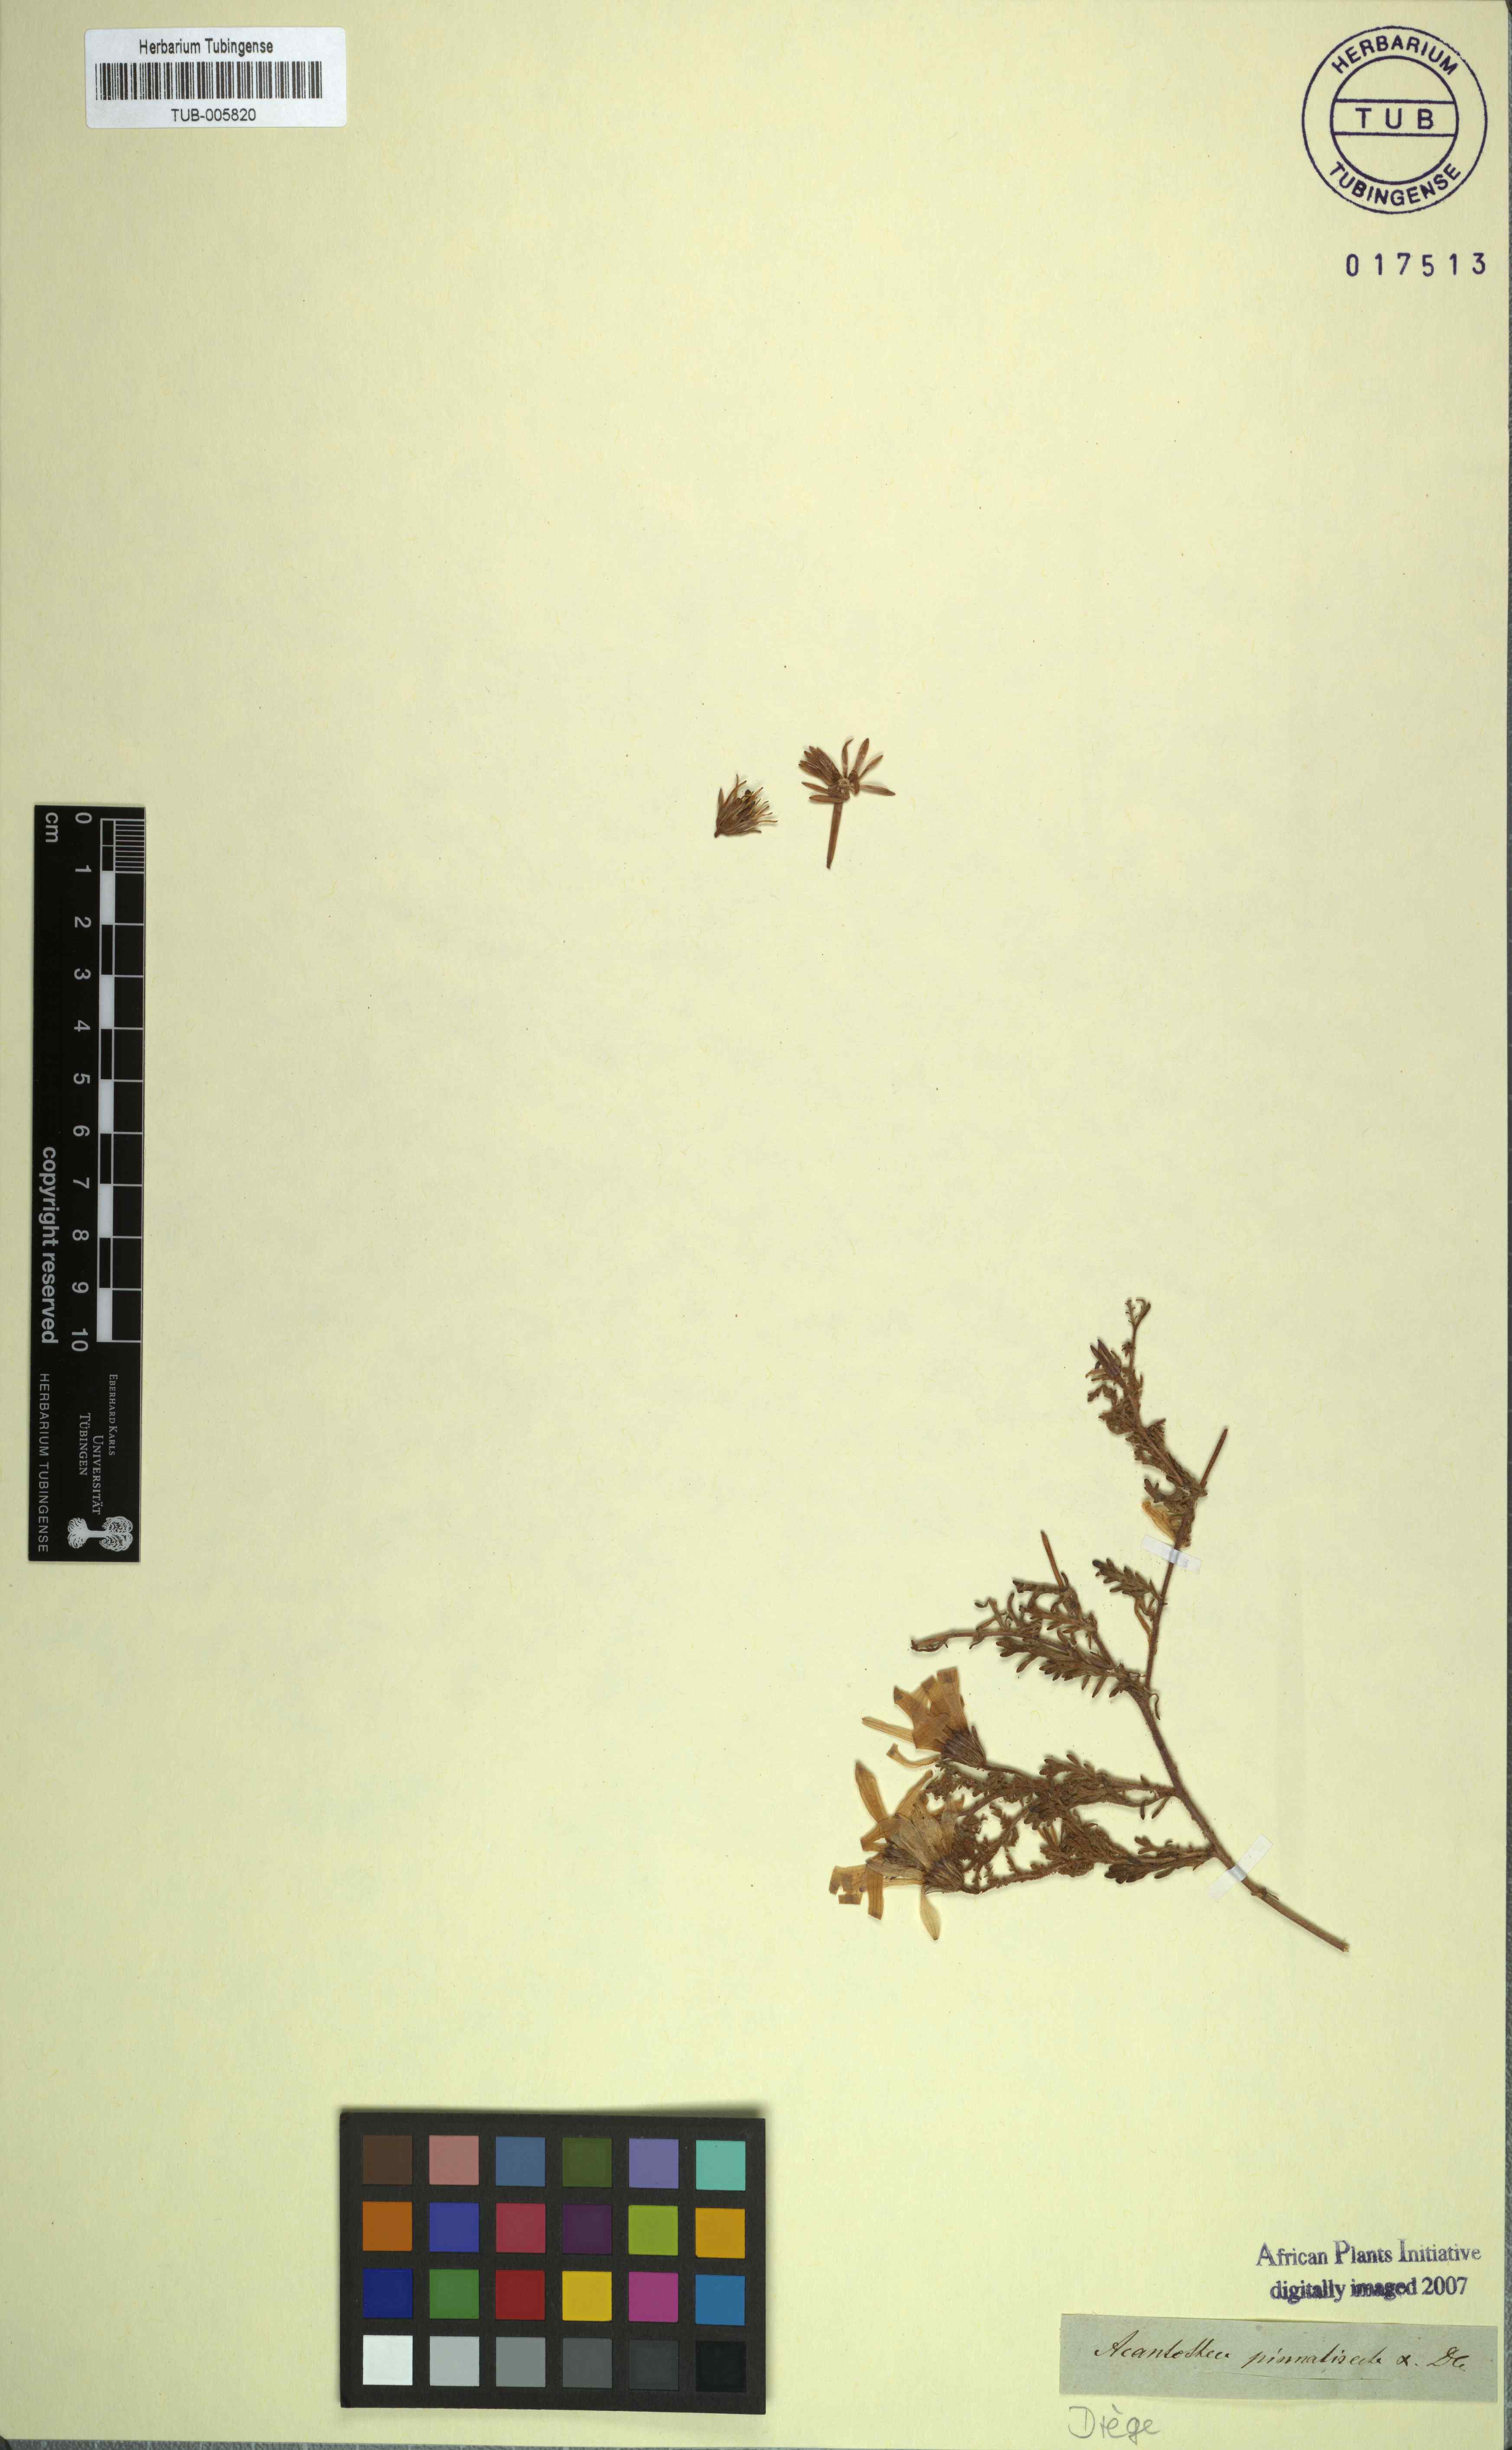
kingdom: Plantae
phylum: Tracheophyta
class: Magnoliopsida
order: Asterales
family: Asteraceae
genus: Dimorphotheca
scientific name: Dimorphotheca pinnata
